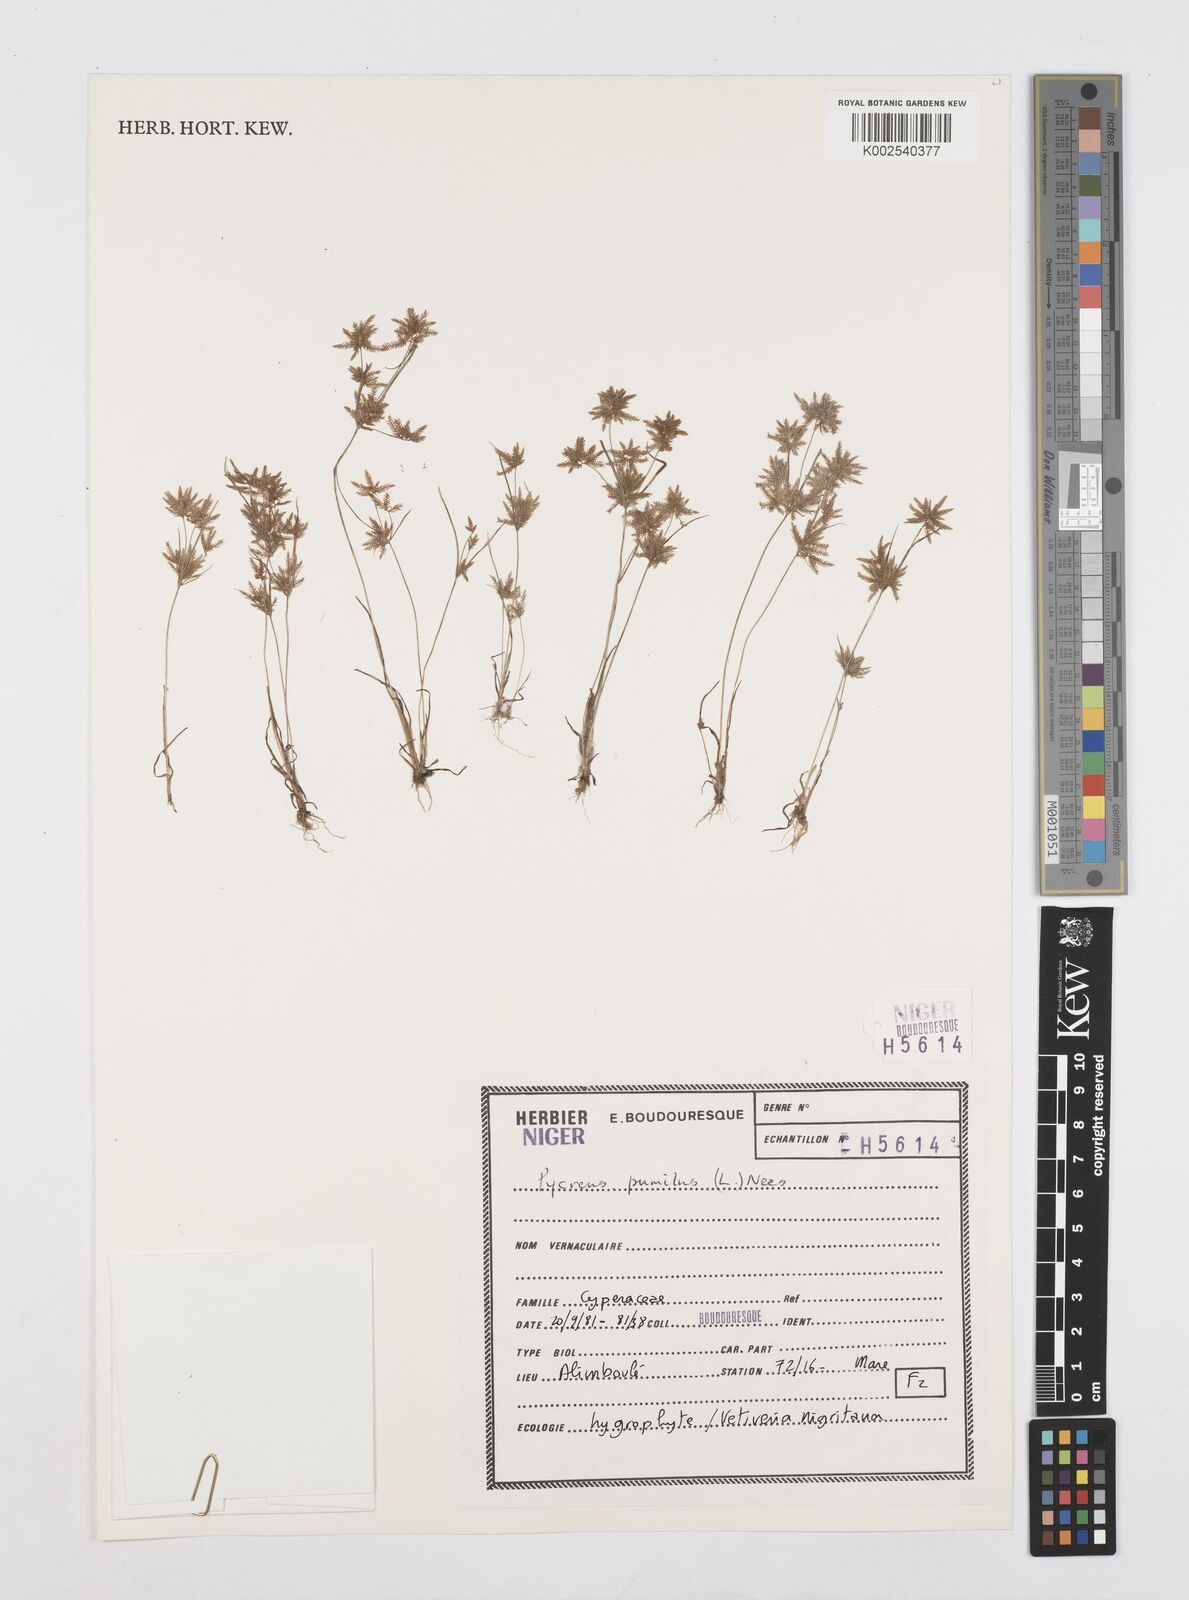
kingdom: Plantae
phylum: Tracheophyta
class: Liliopsida
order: Poales
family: Cyperaceae
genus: Cyperus
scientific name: Cyperus pumilus
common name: Low flatsedge
